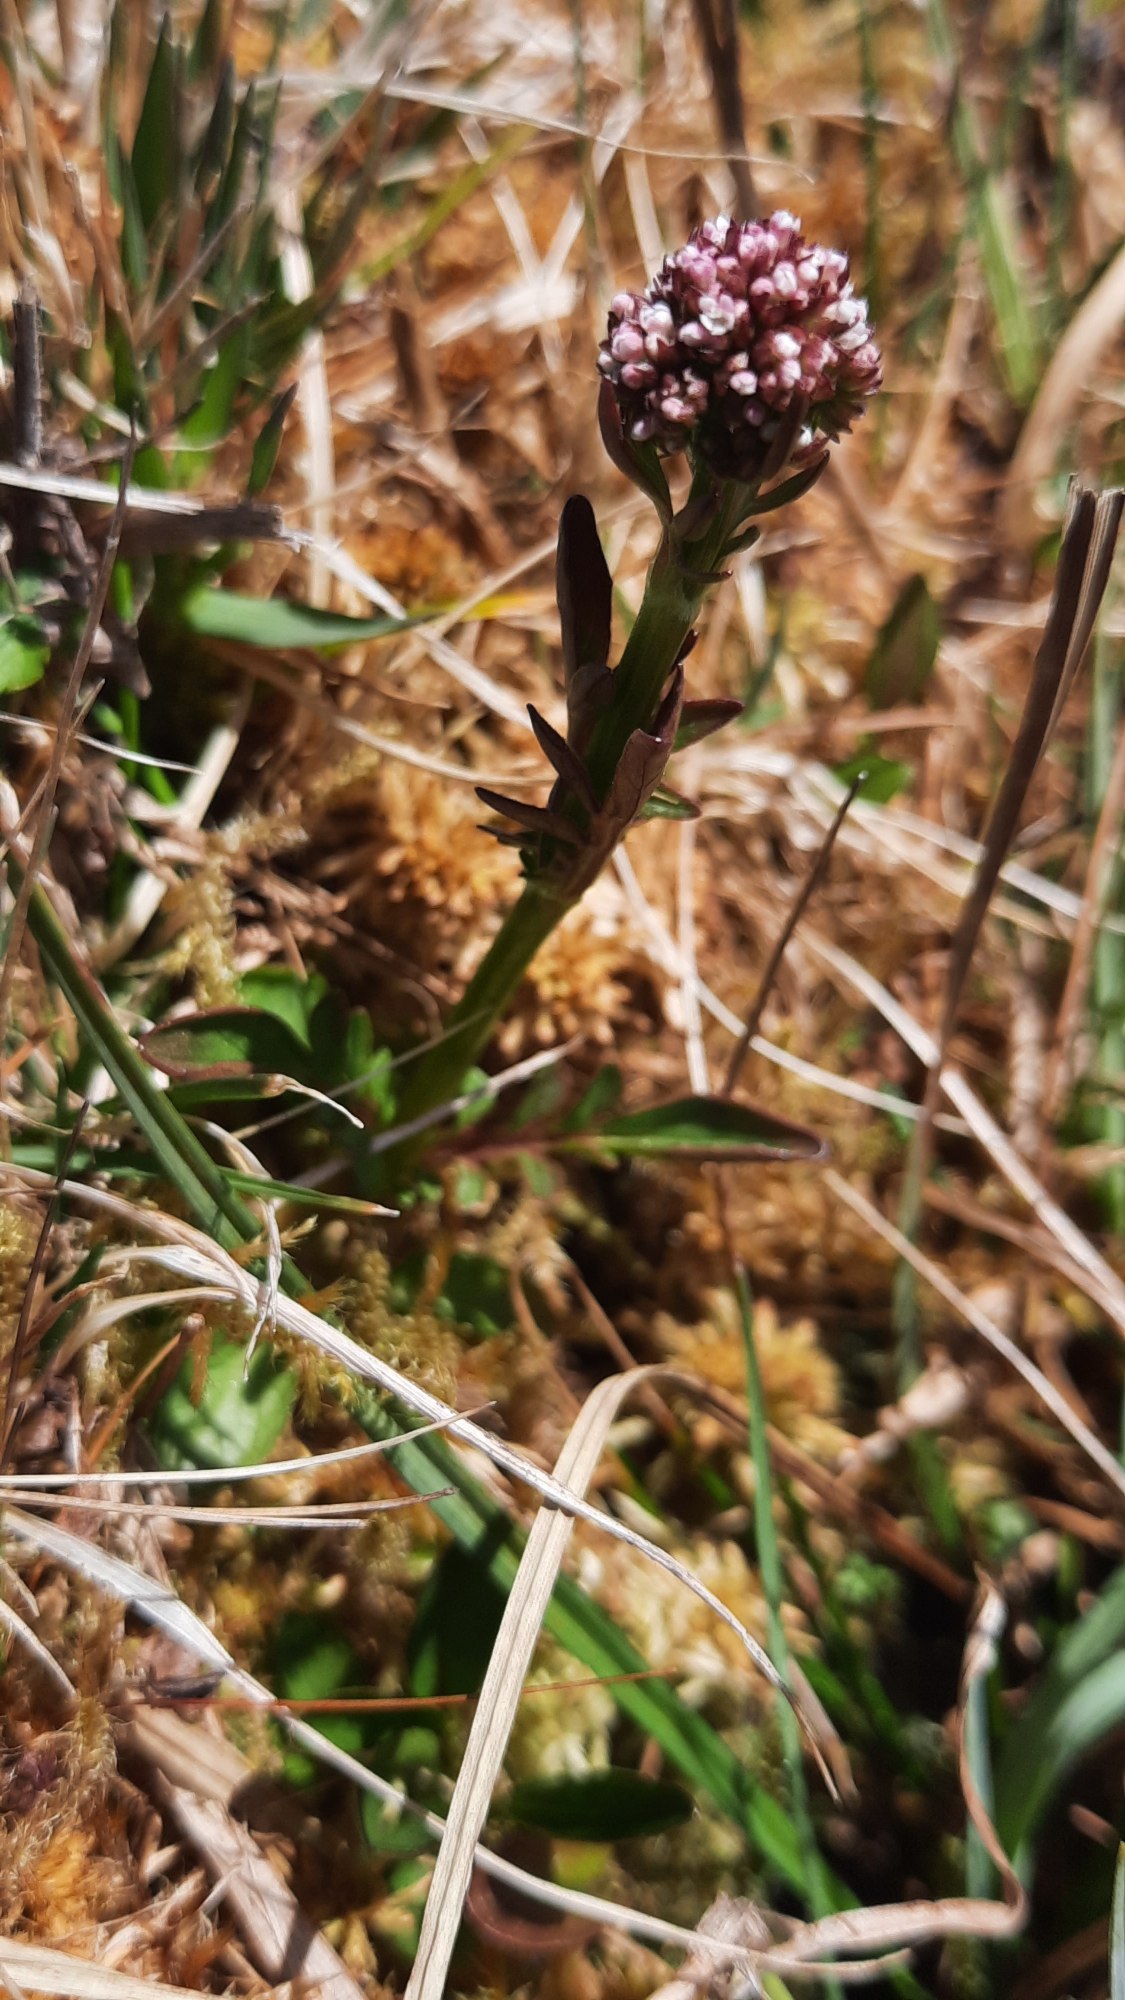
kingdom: Plantae
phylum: Tracheophyta
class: Magnoliopsida
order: Dipsacales
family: Caprifoliaceae
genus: Valeriana
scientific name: Valeriana dioica
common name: Tvebo baldrian
